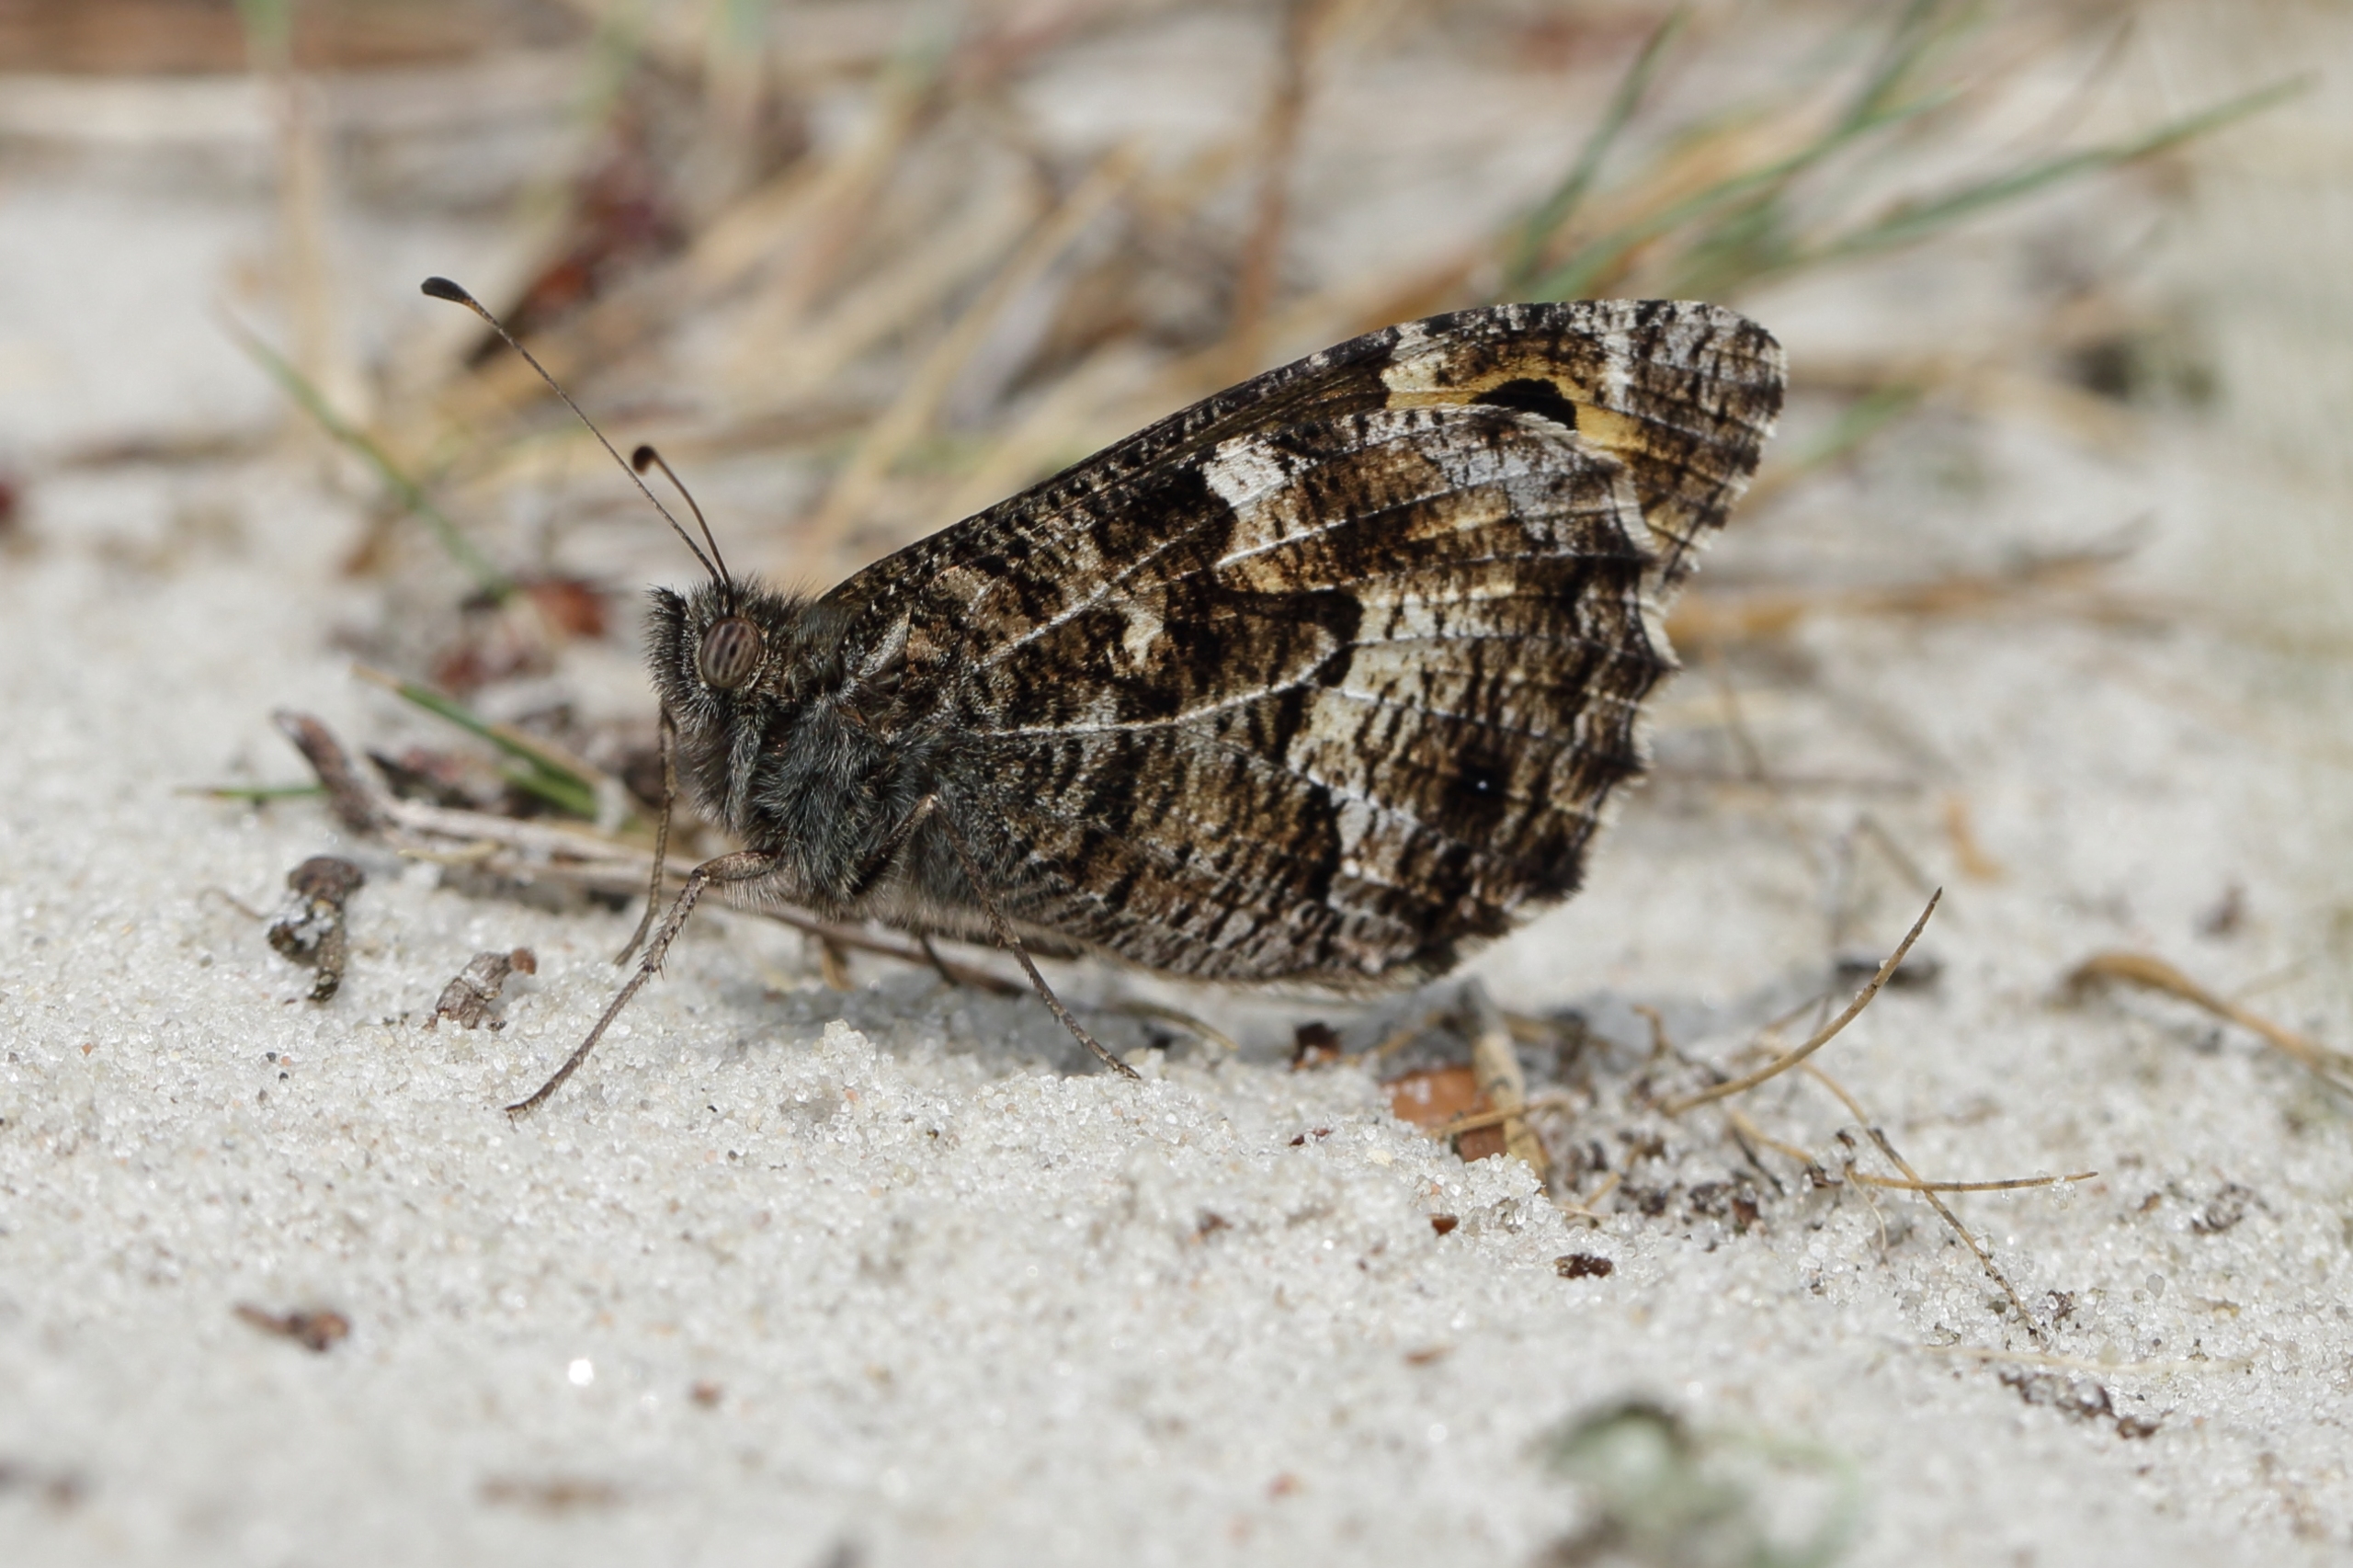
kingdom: Animalia
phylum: Arthropoda
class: Insecta
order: Lepidoptera
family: Nymphalidae
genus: Hipparchia
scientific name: Hipparchia semele
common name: Sandrandøje
